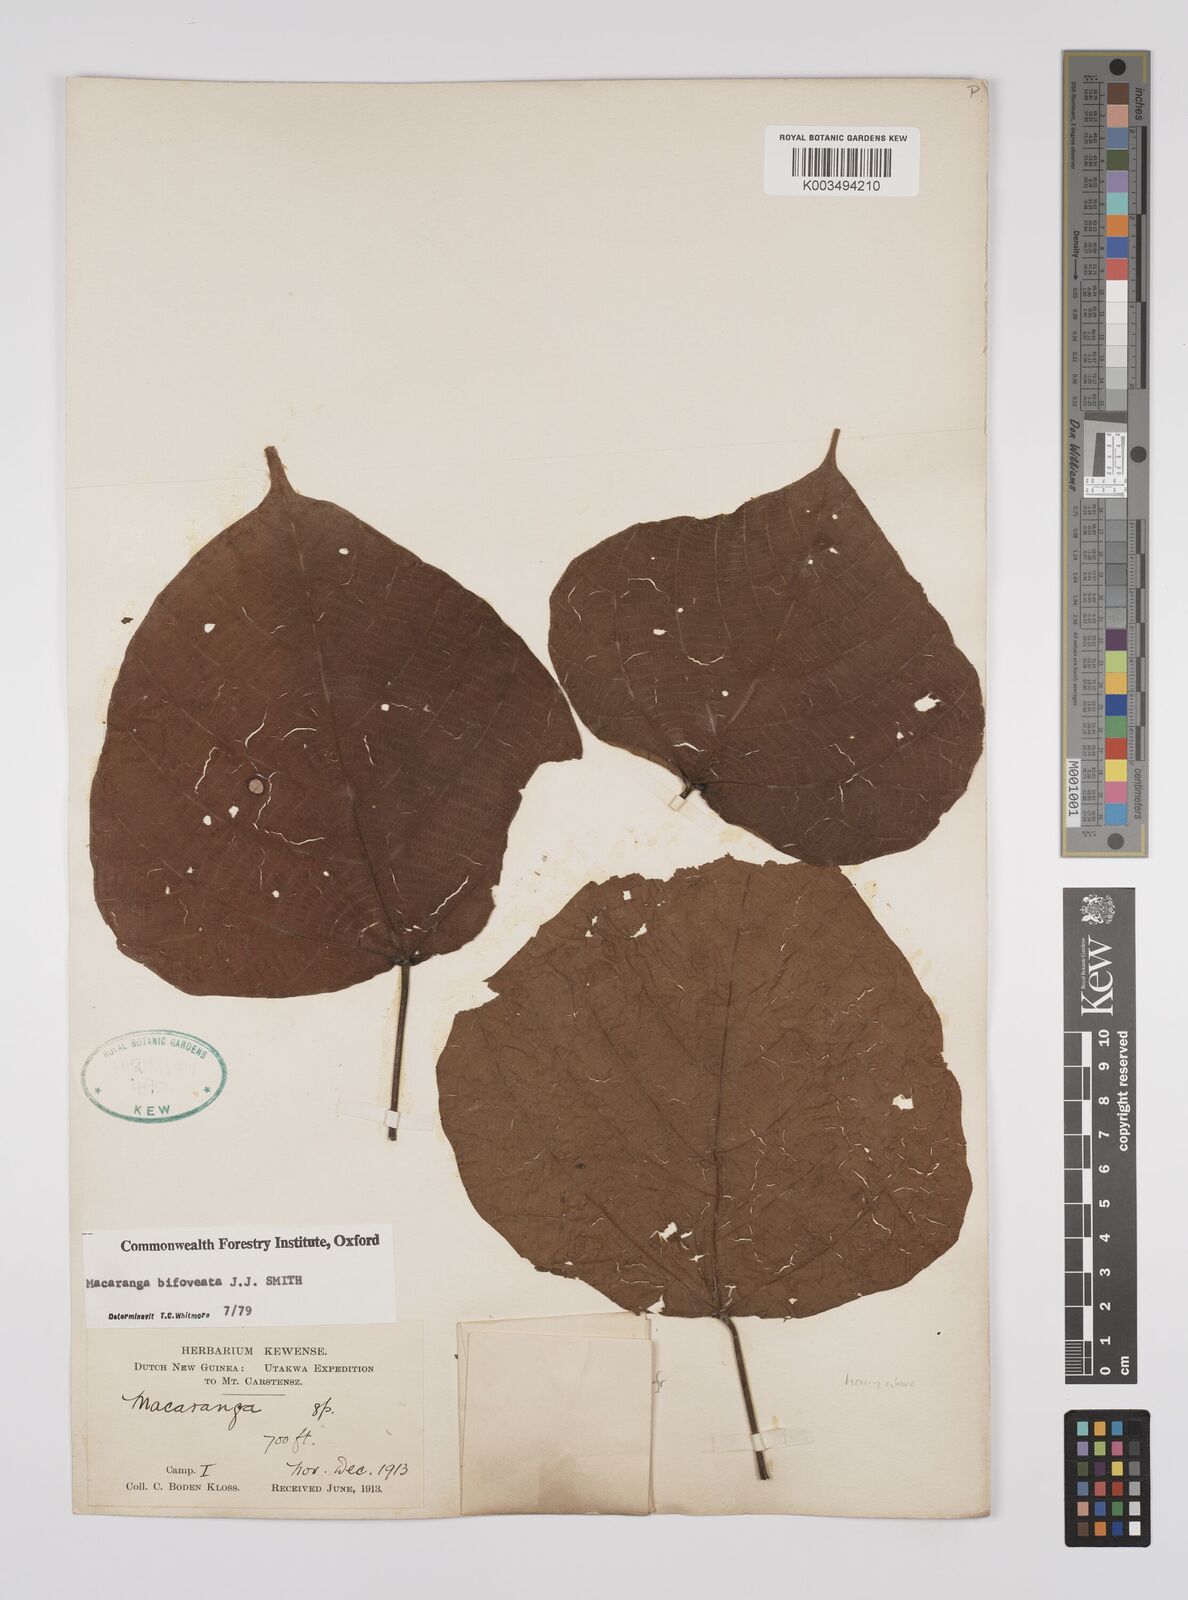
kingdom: Plantae
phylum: Tracheophyta
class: Magnoliopsida
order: Malpighiales
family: Euphorbiaceae
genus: Macaranga
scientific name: Macaranga bifoveata
